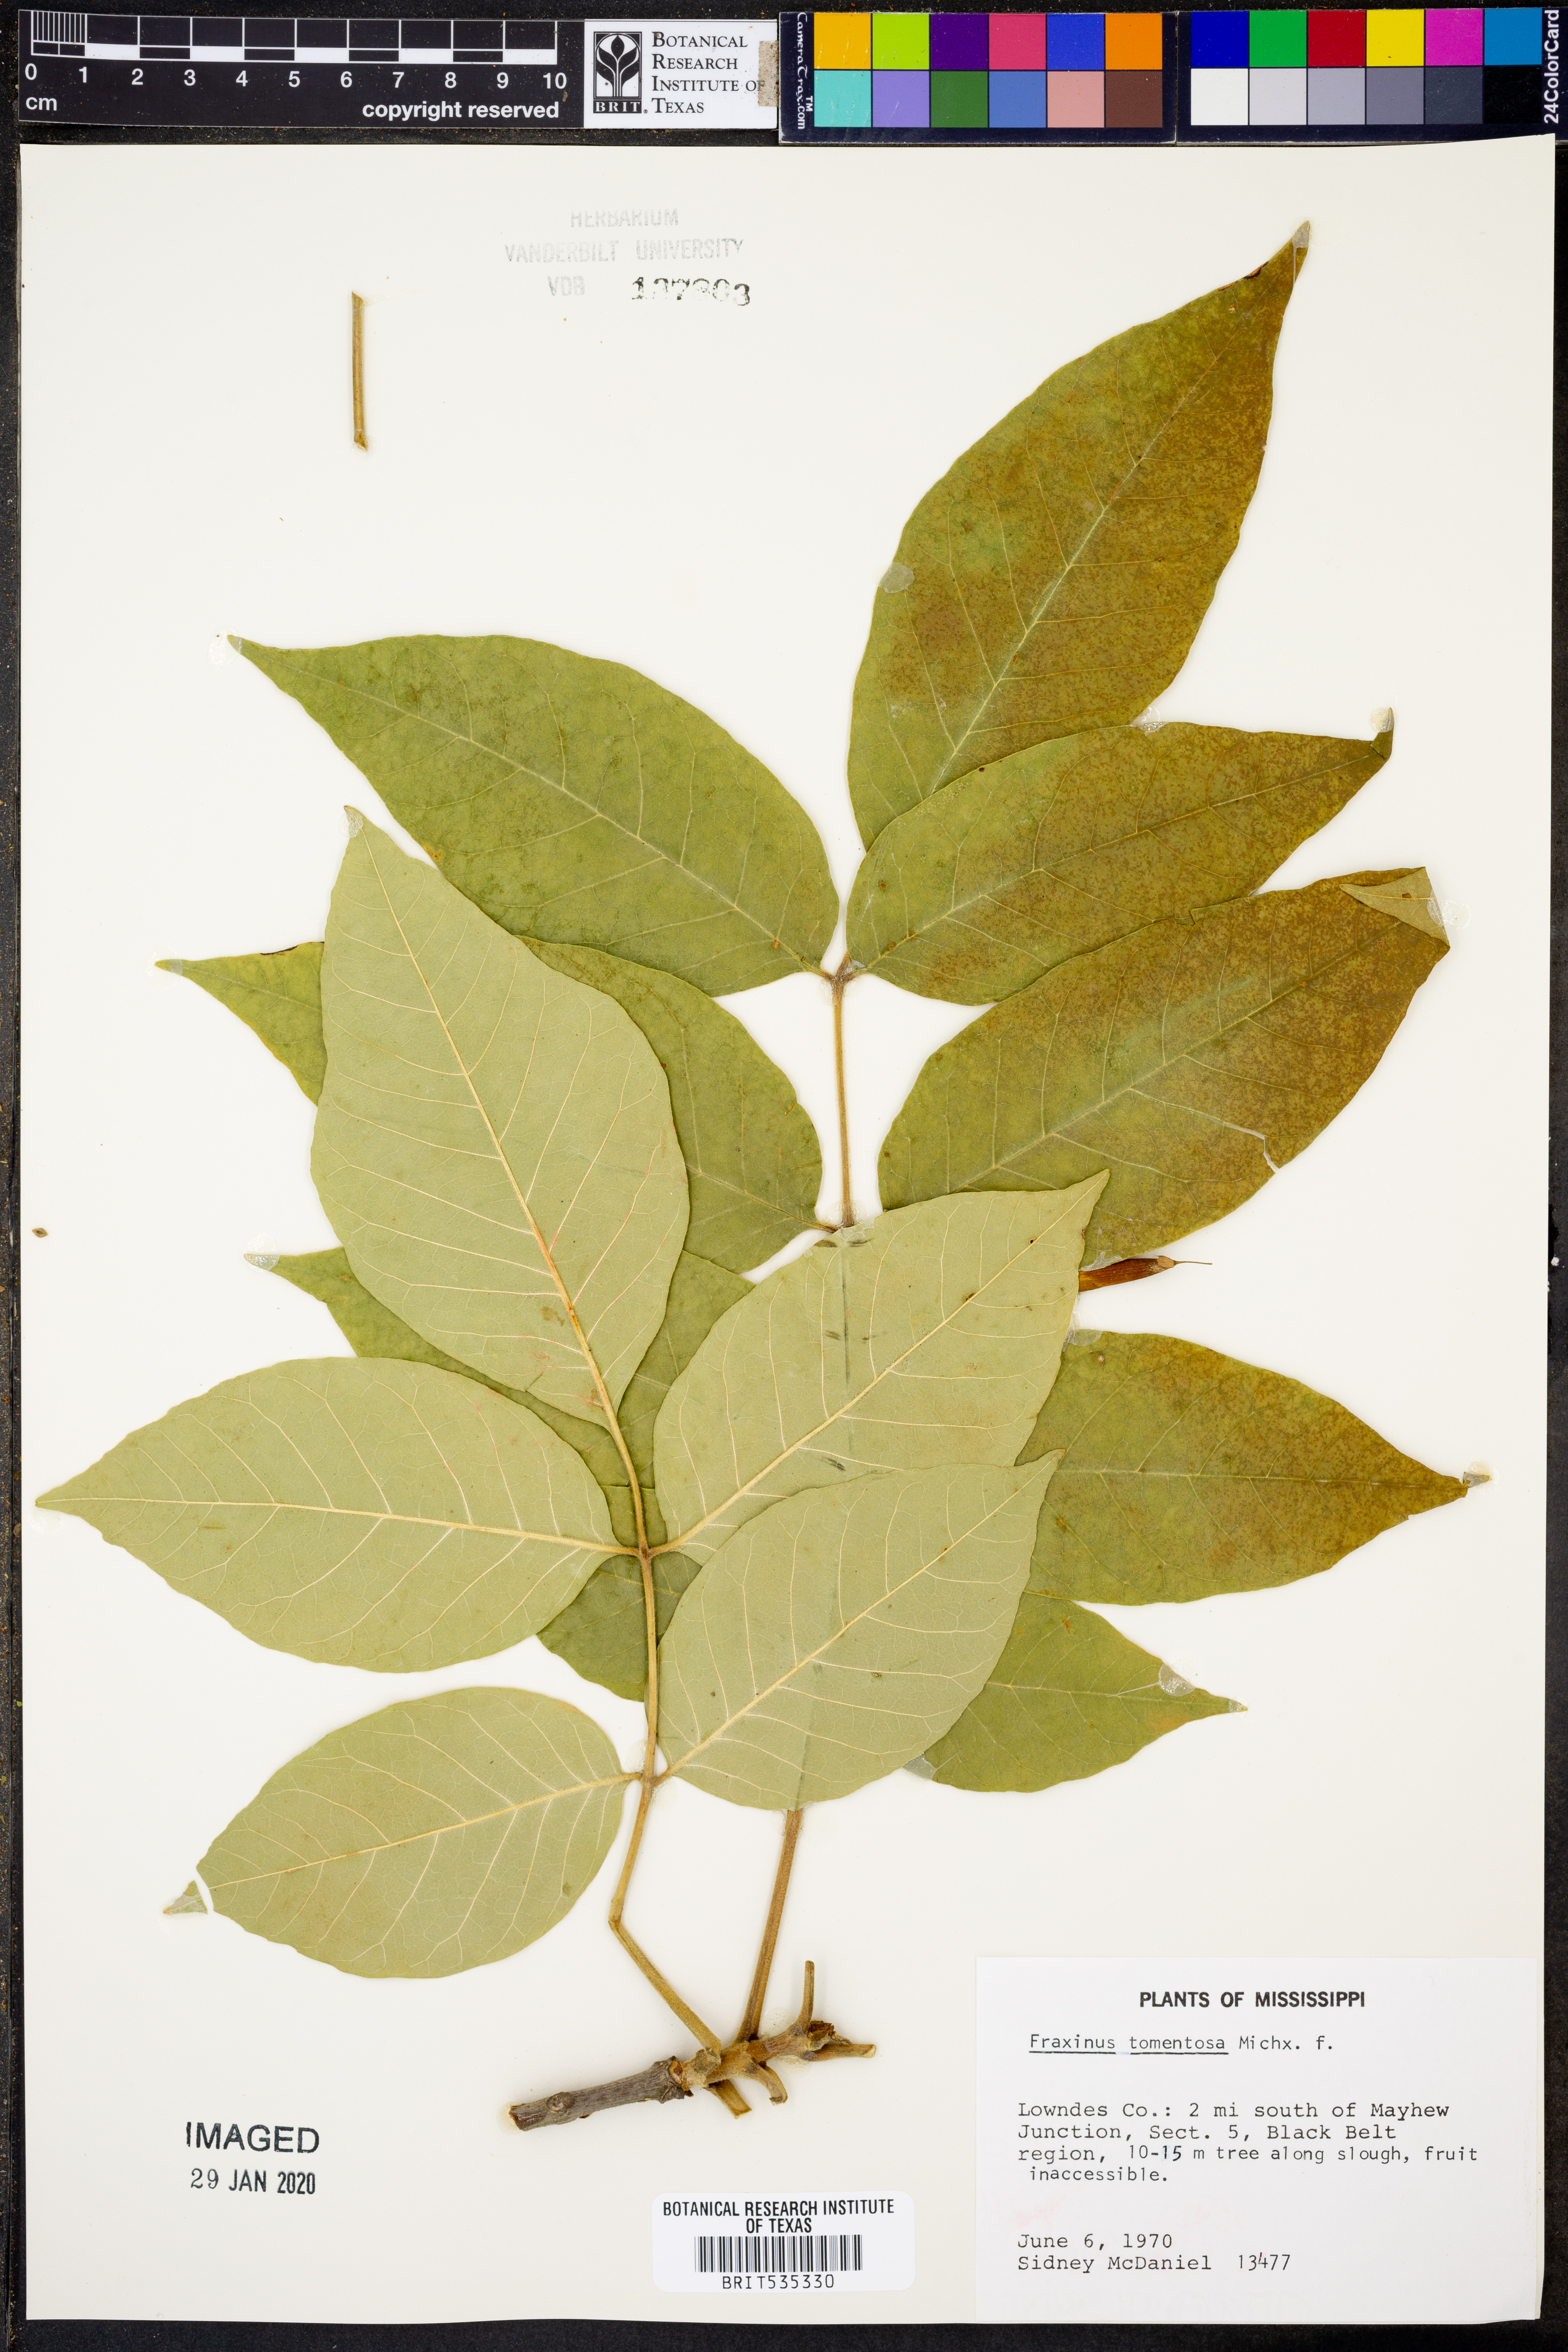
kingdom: Plantae
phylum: Tracheophyta
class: Magnoliopsida
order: Lamiales
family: Oleaceae
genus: Fraxinus
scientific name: Fraxinus profunda
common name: Pumpkin ash
